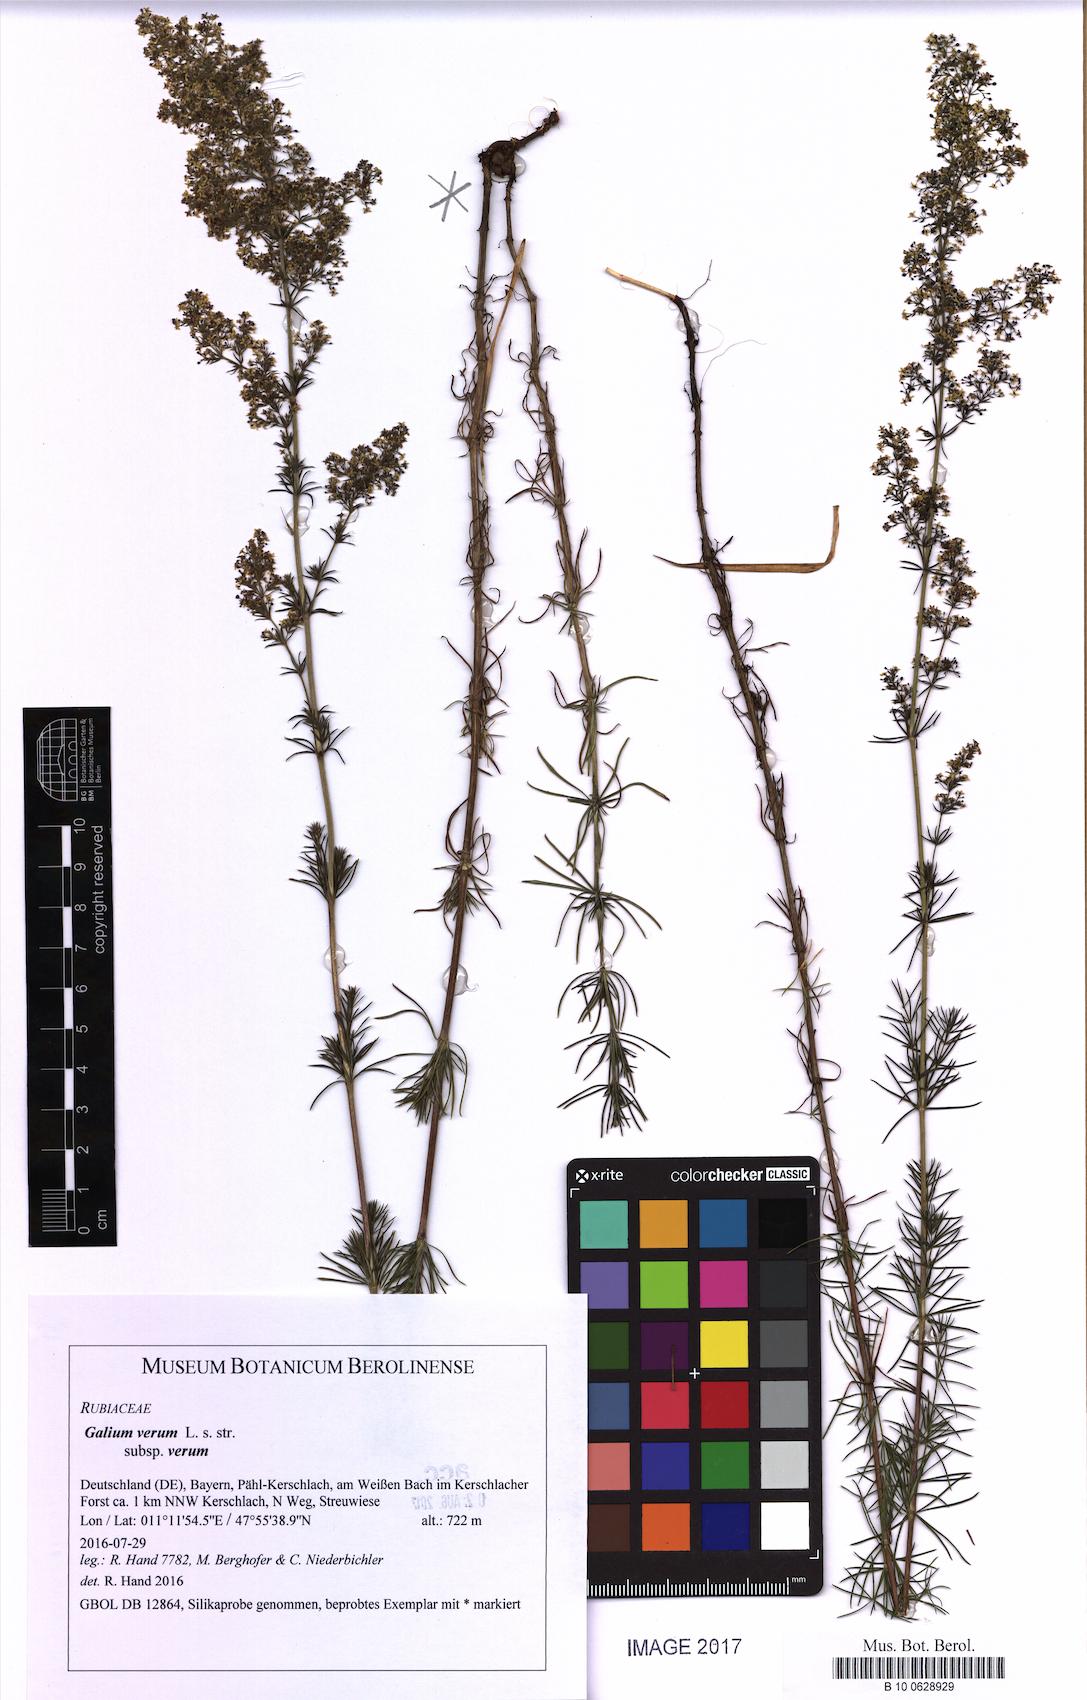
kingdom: Plantae
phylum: Tracheophyta
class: Magnoliopsida
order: Gentianales
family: Rubiaceae
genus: Galium
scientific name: Galium verum
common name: Lady's bedstraw
